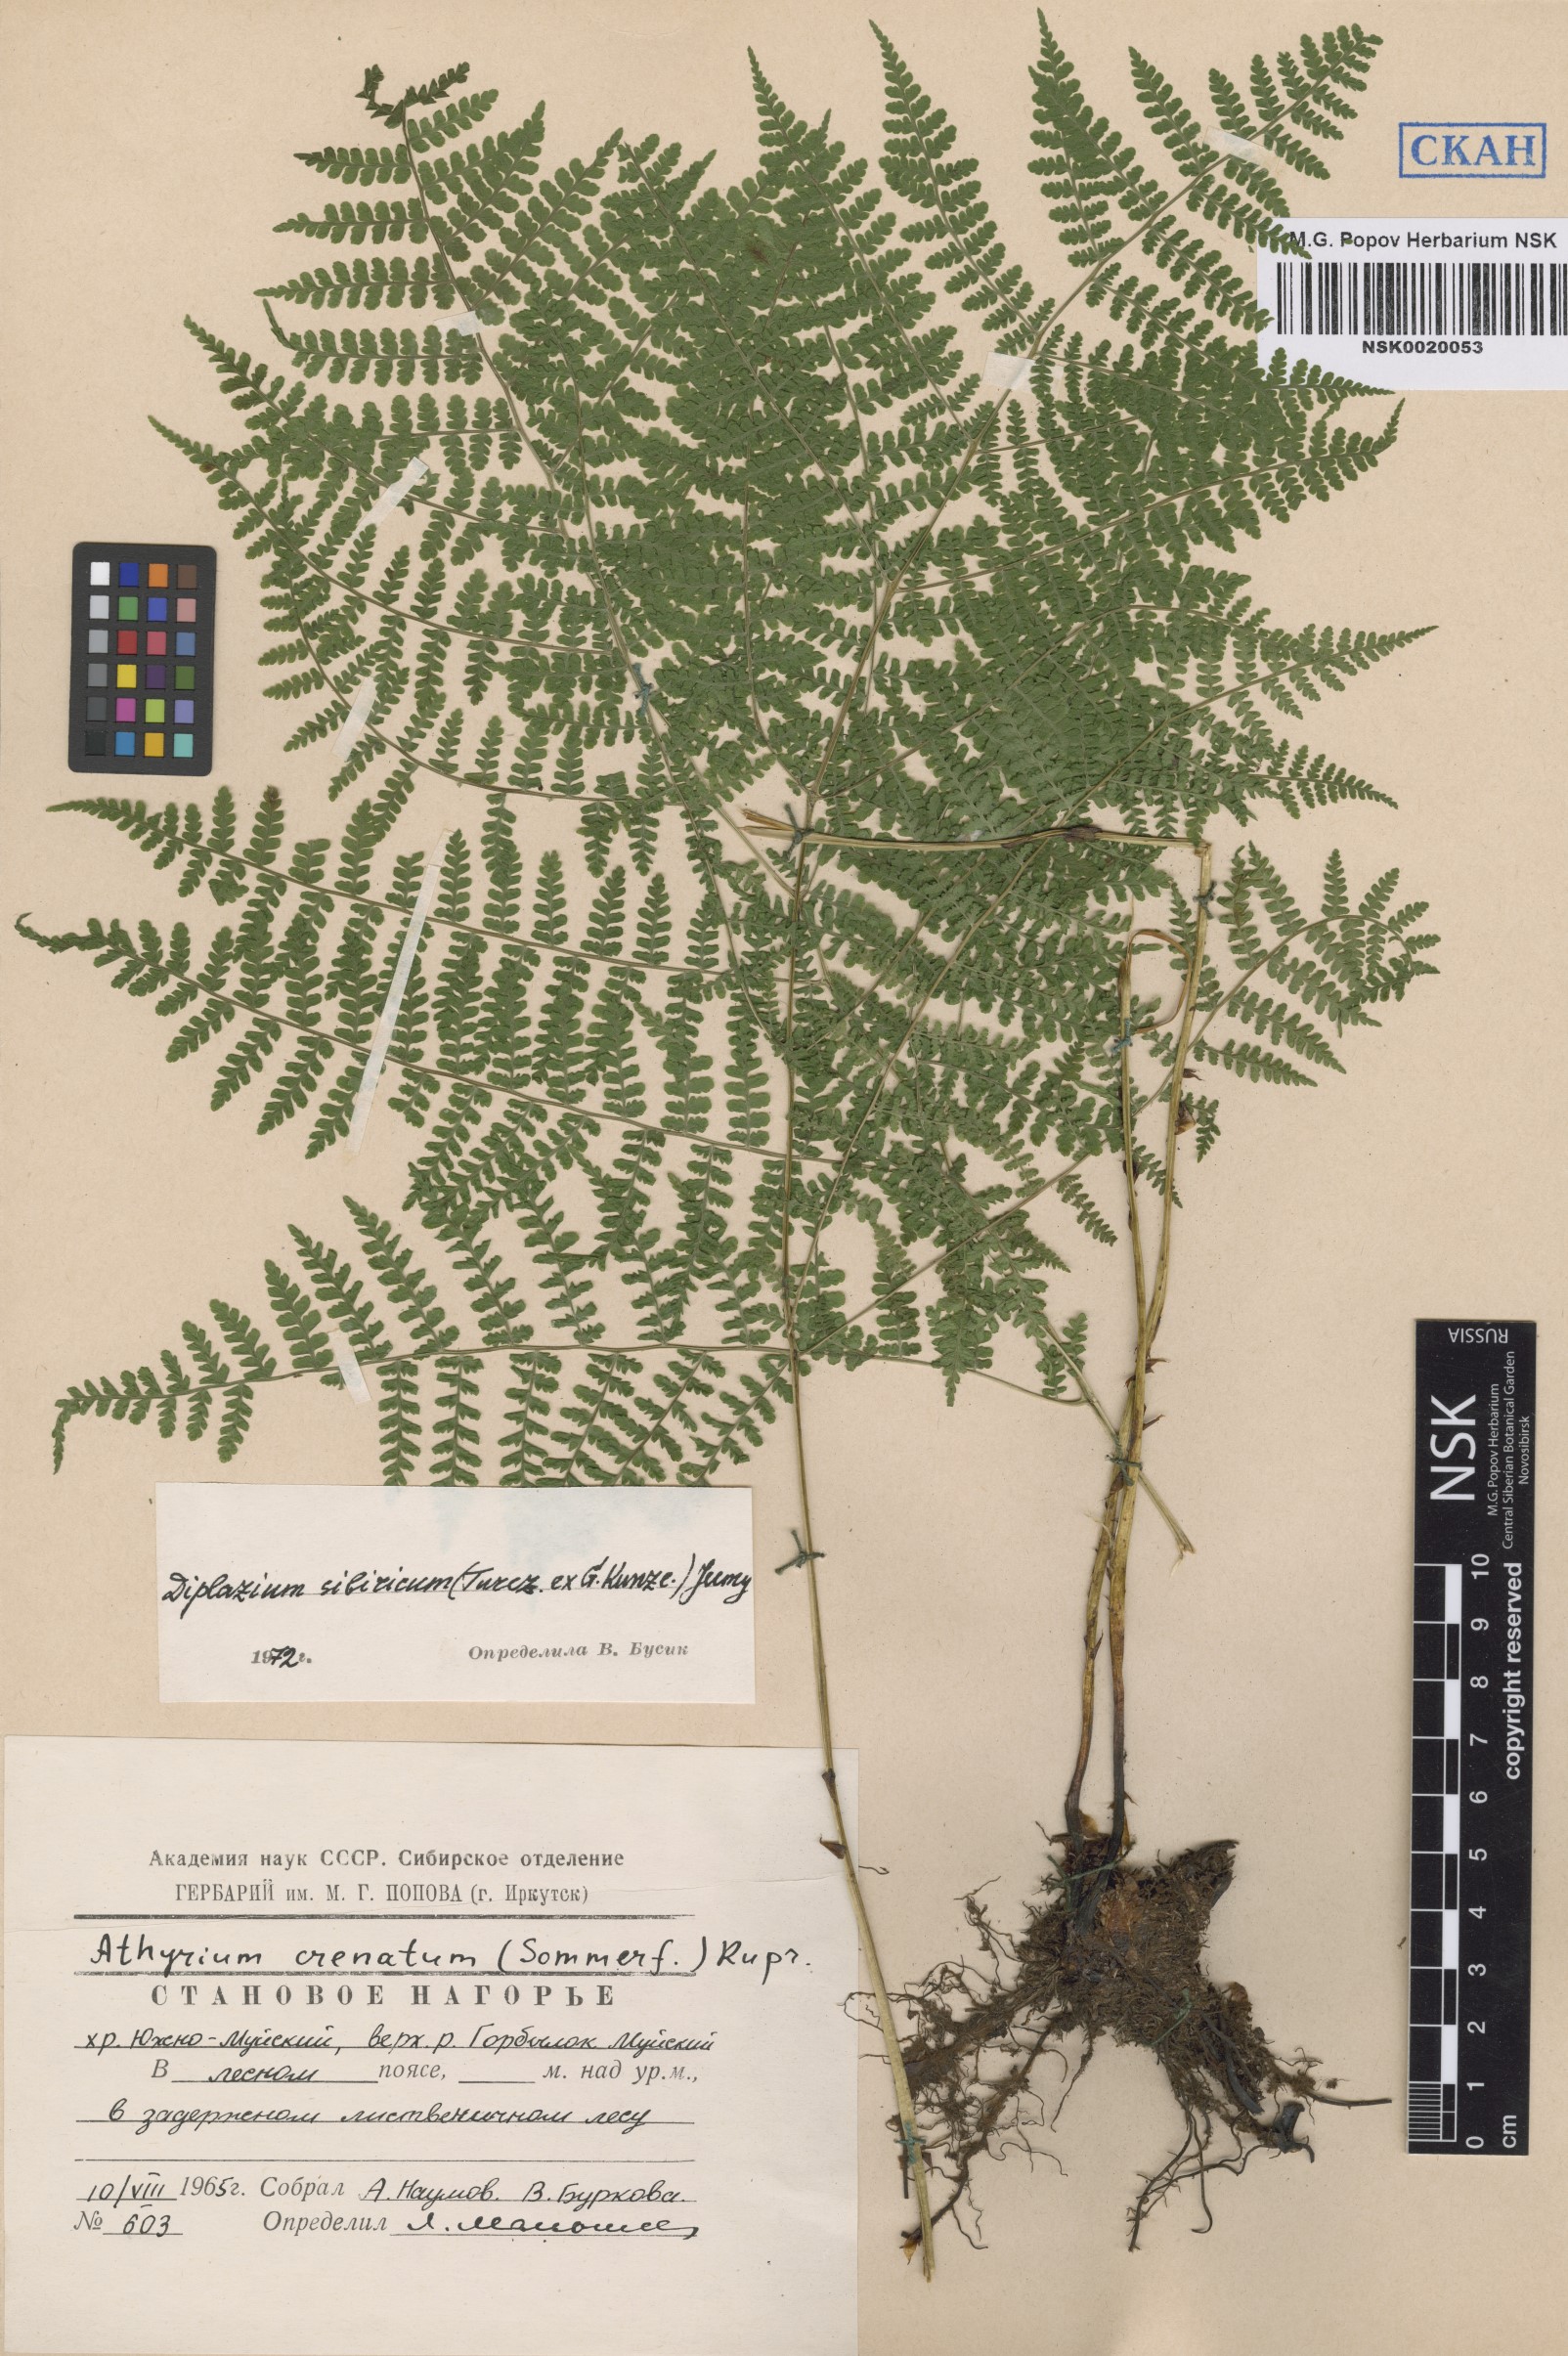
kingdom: Plantae
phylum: Tracheophyta
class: Polypodiopsida
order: Polypodiales
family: Athyriaceae
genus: Diplazium
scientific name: Diplazium sibiricum
